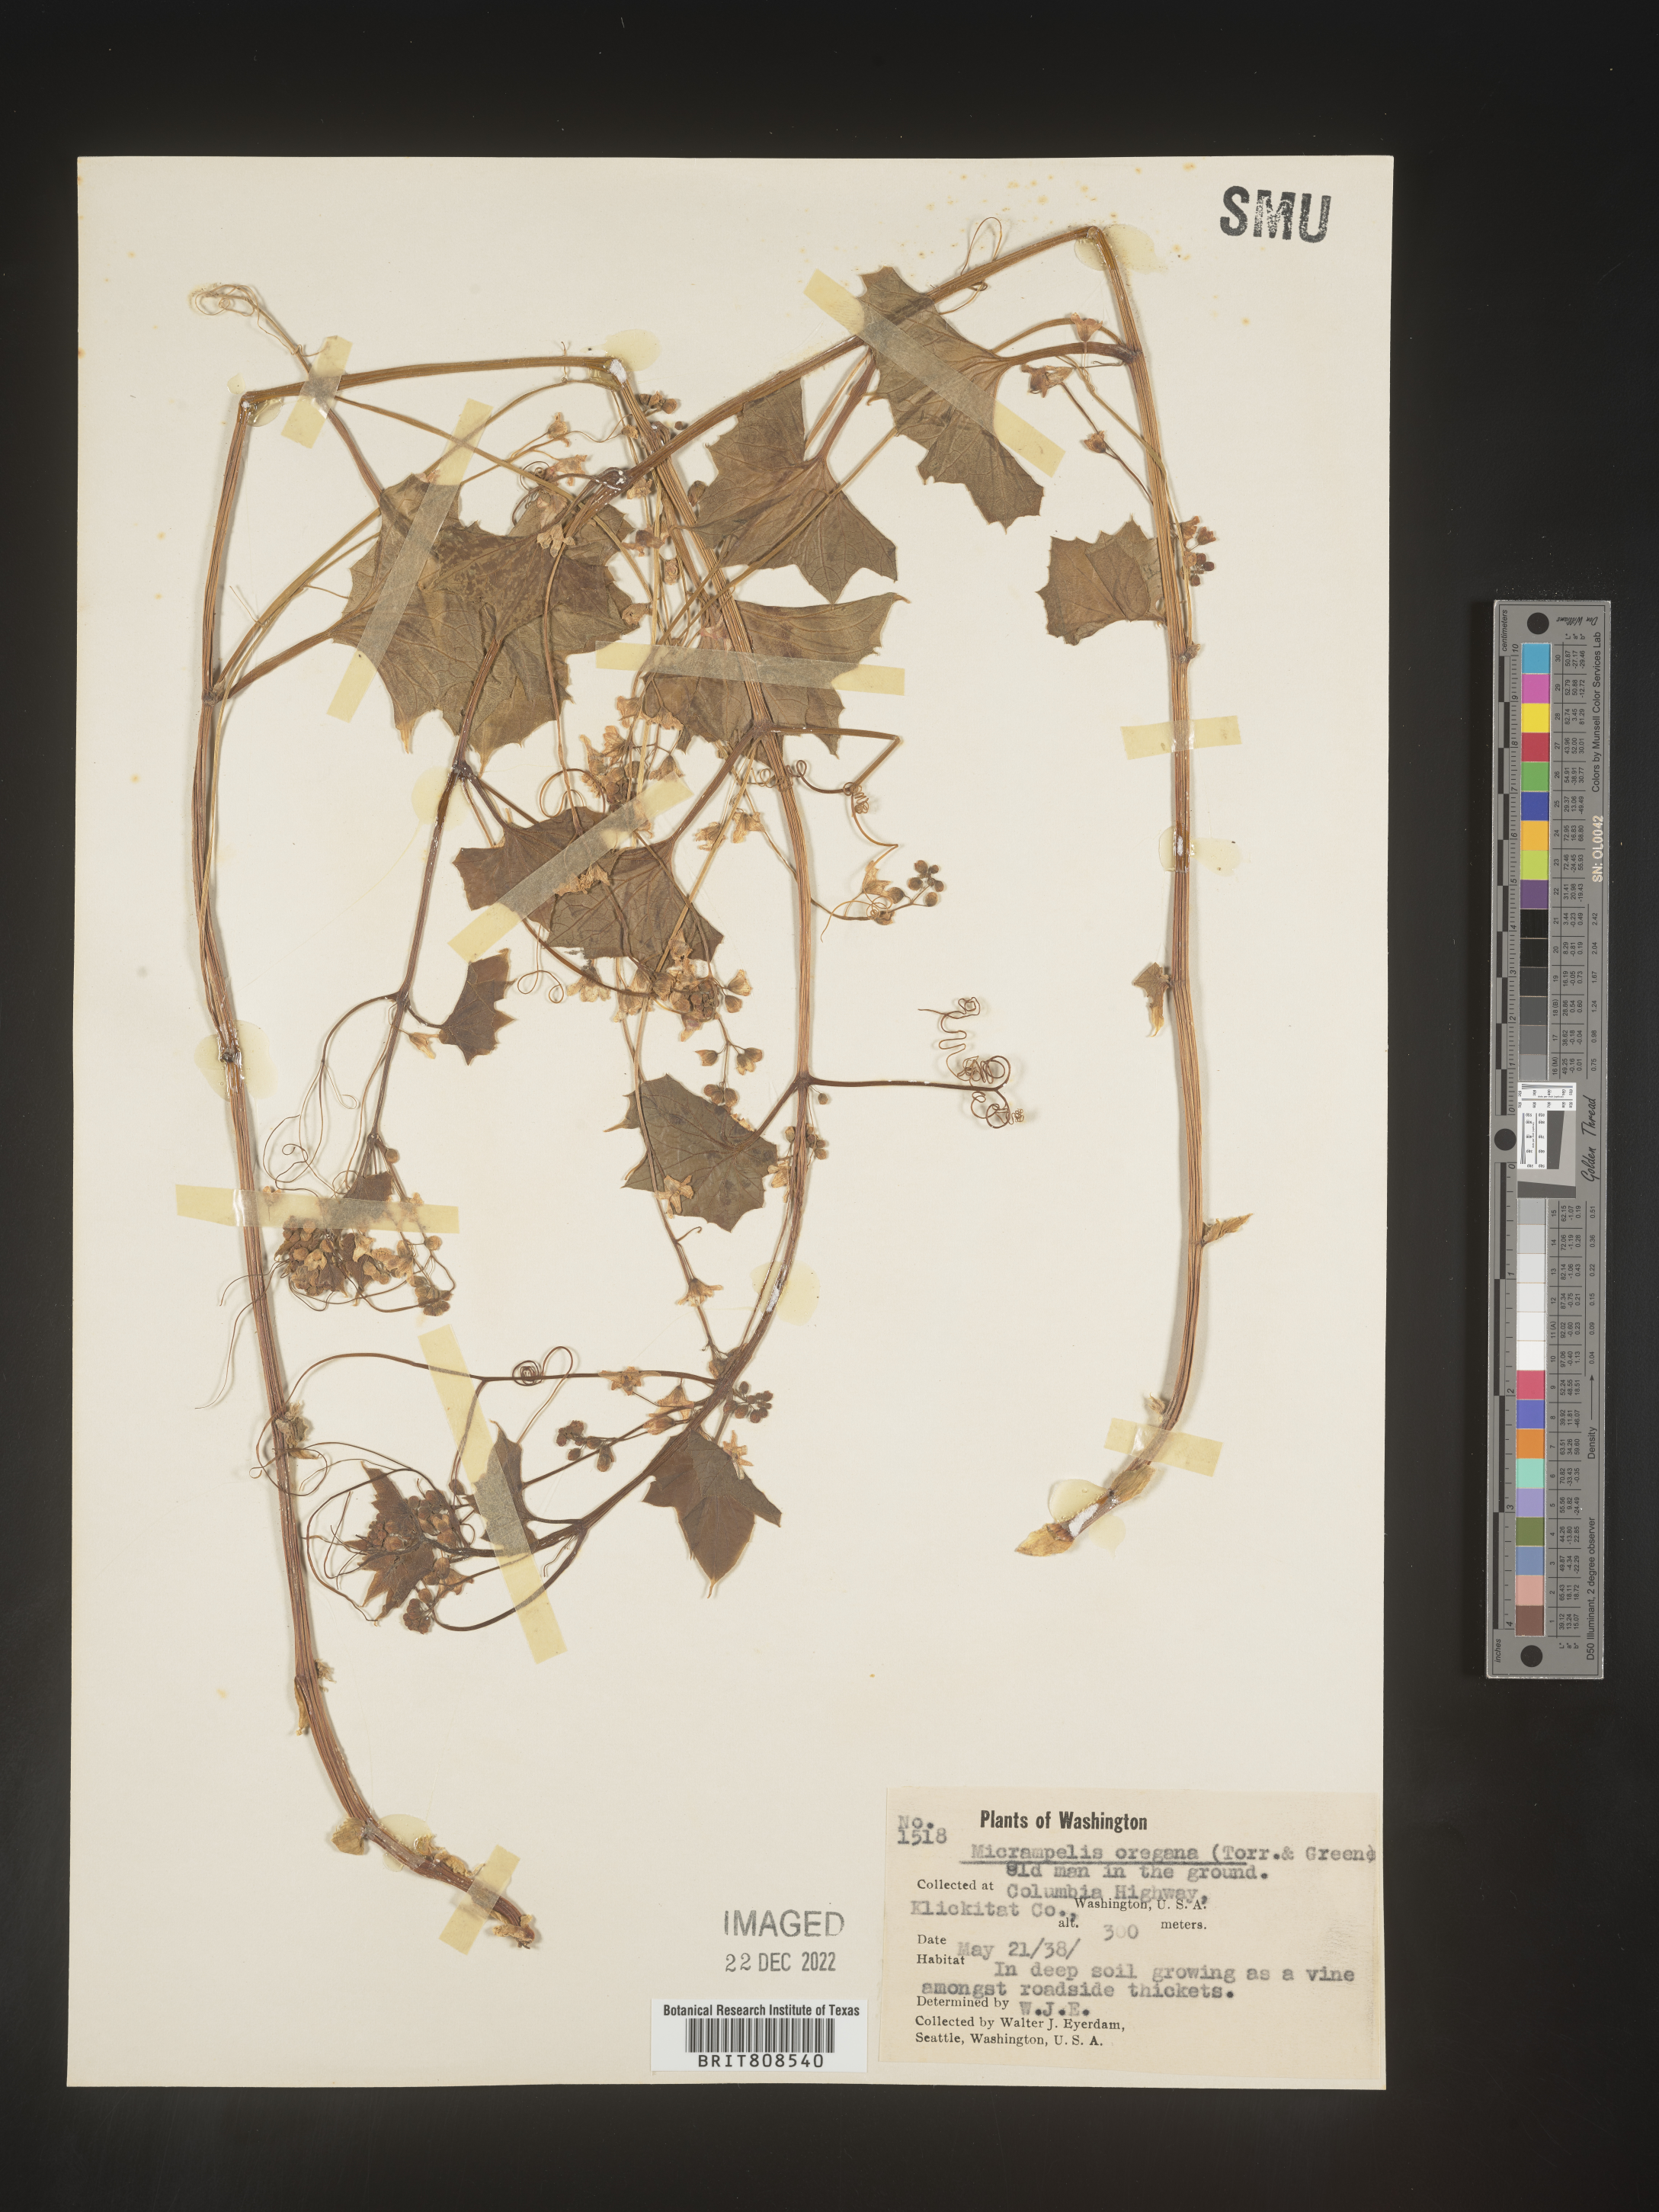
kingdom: Plantae
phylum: Tracheophyta
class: Magnoliopsida
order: Cucurbitales
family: Cucurbitaceae
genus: Marah
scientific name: Marah
